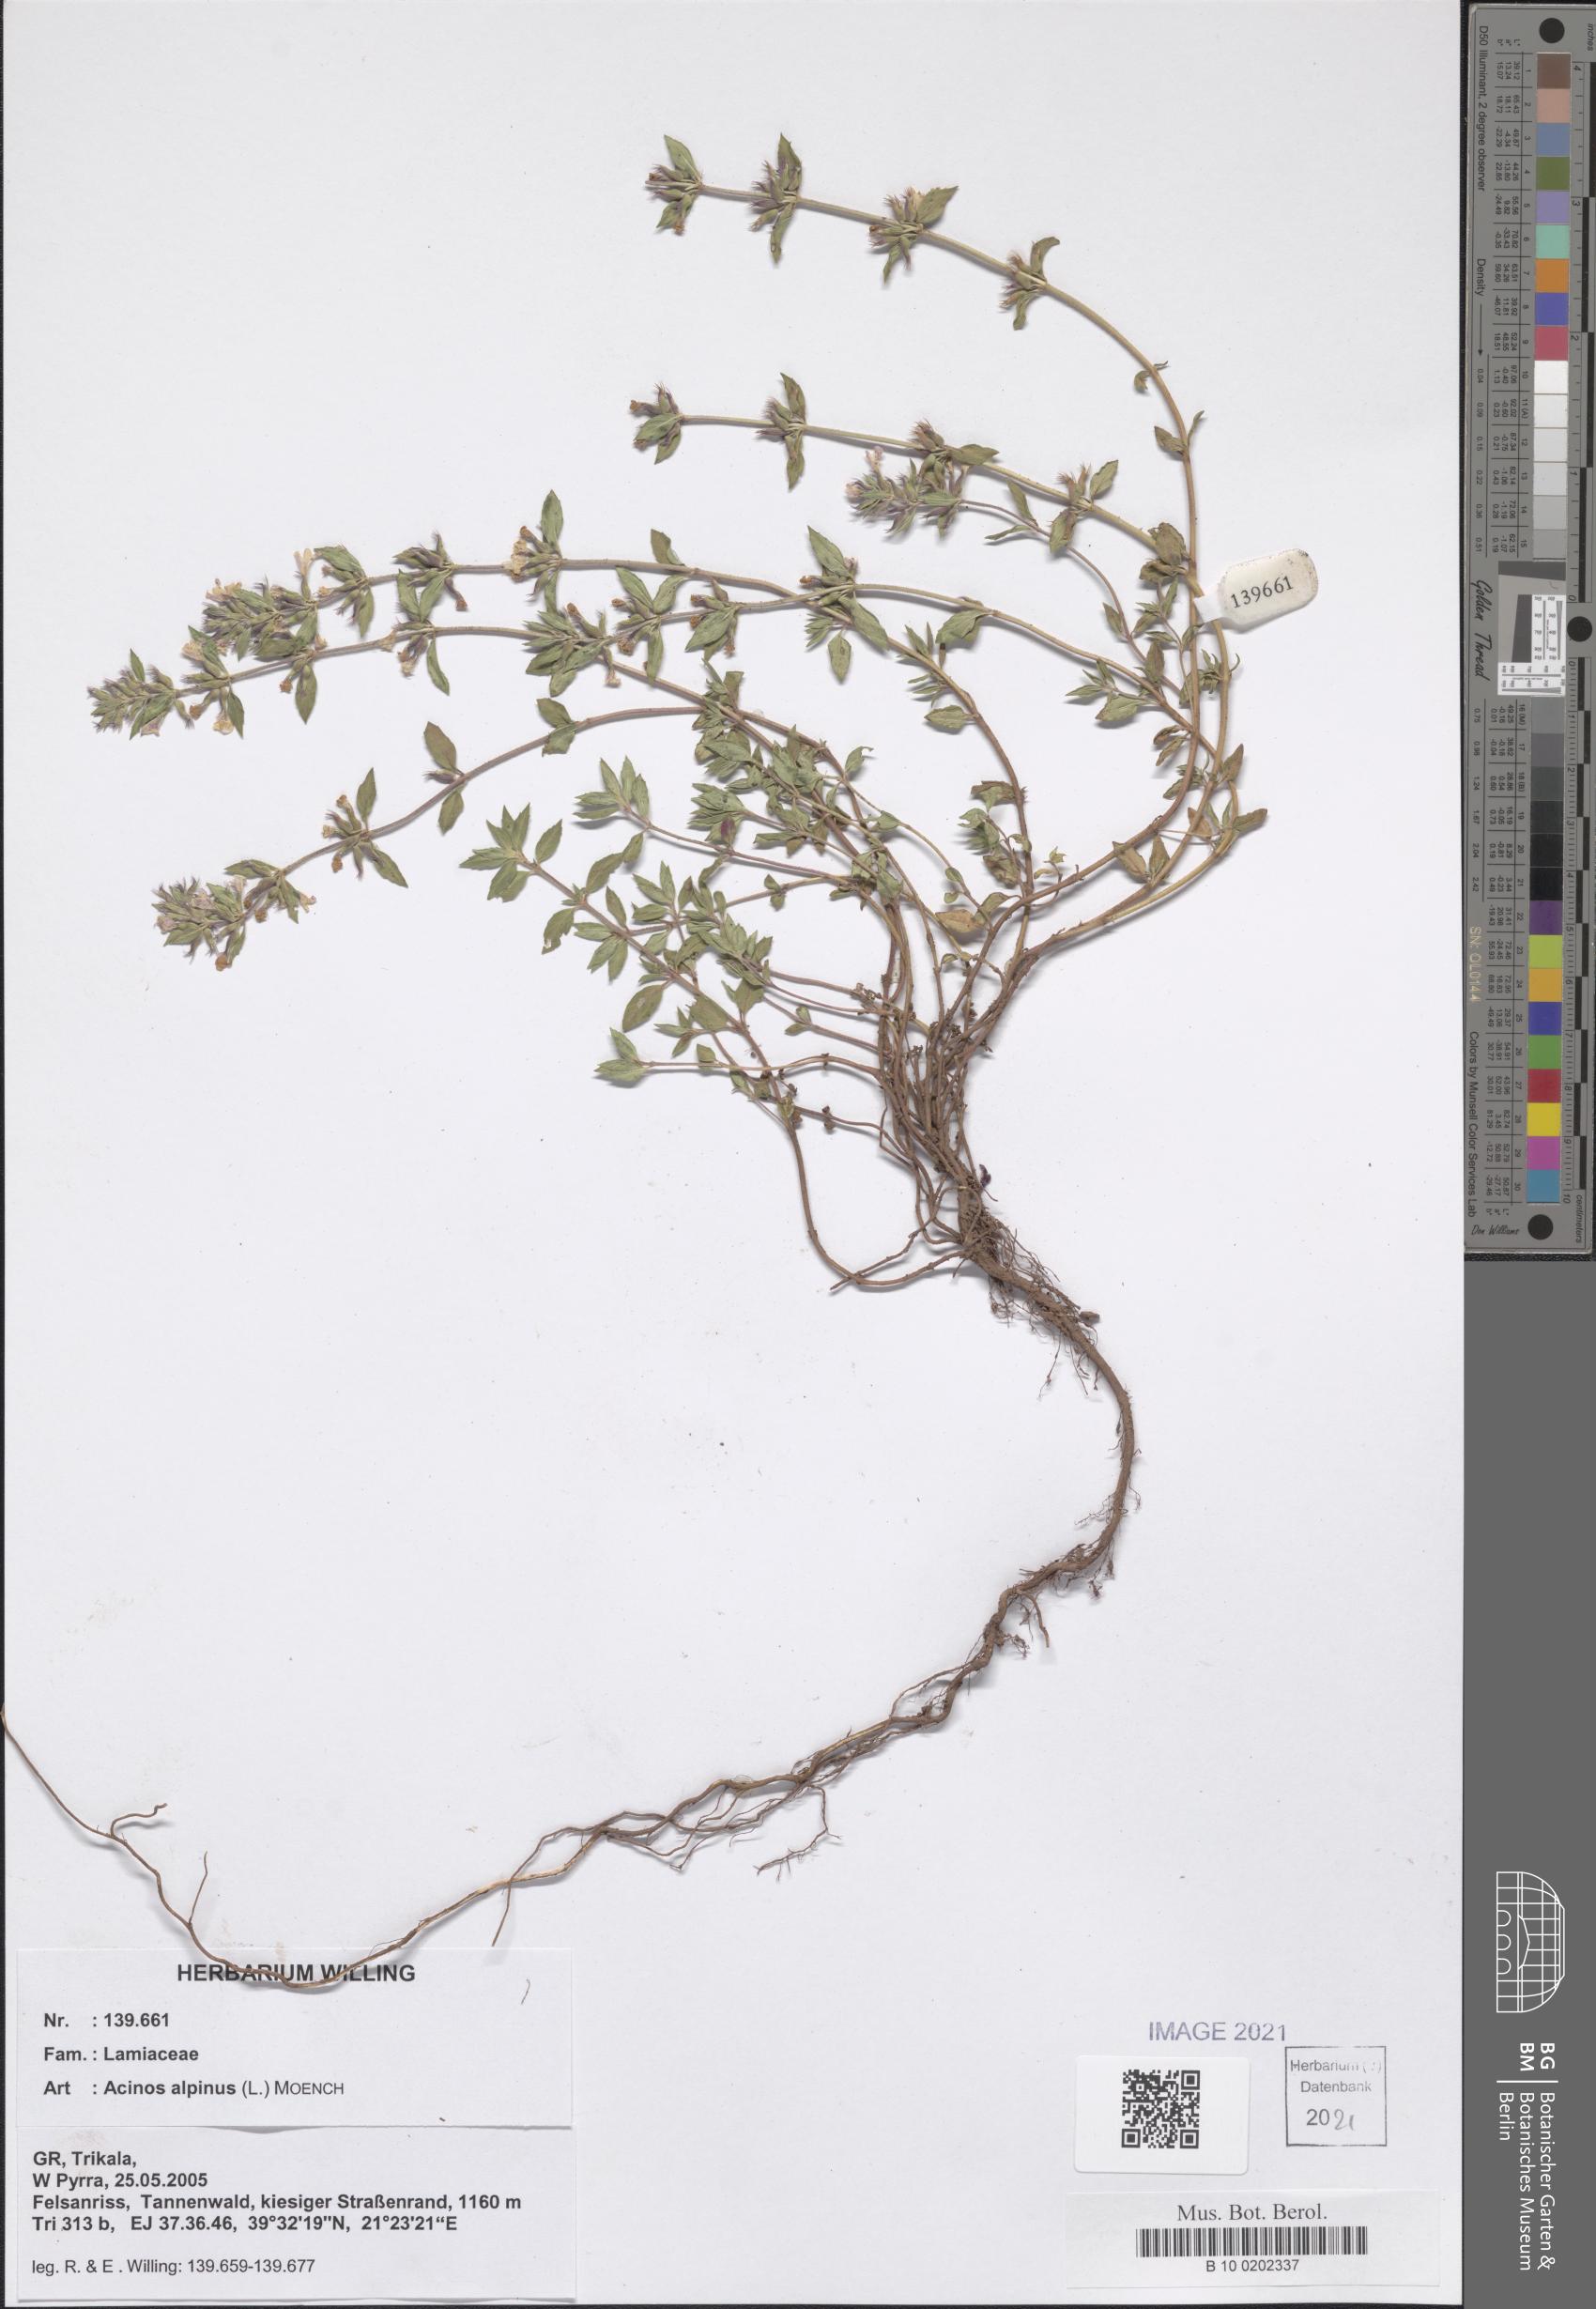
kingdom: Plantae
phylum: Tracheophyta
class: Magnoliopsida
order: Lamiales
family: Lamiaceae
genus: Clinopodium
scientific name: Clinopodium alpinum
